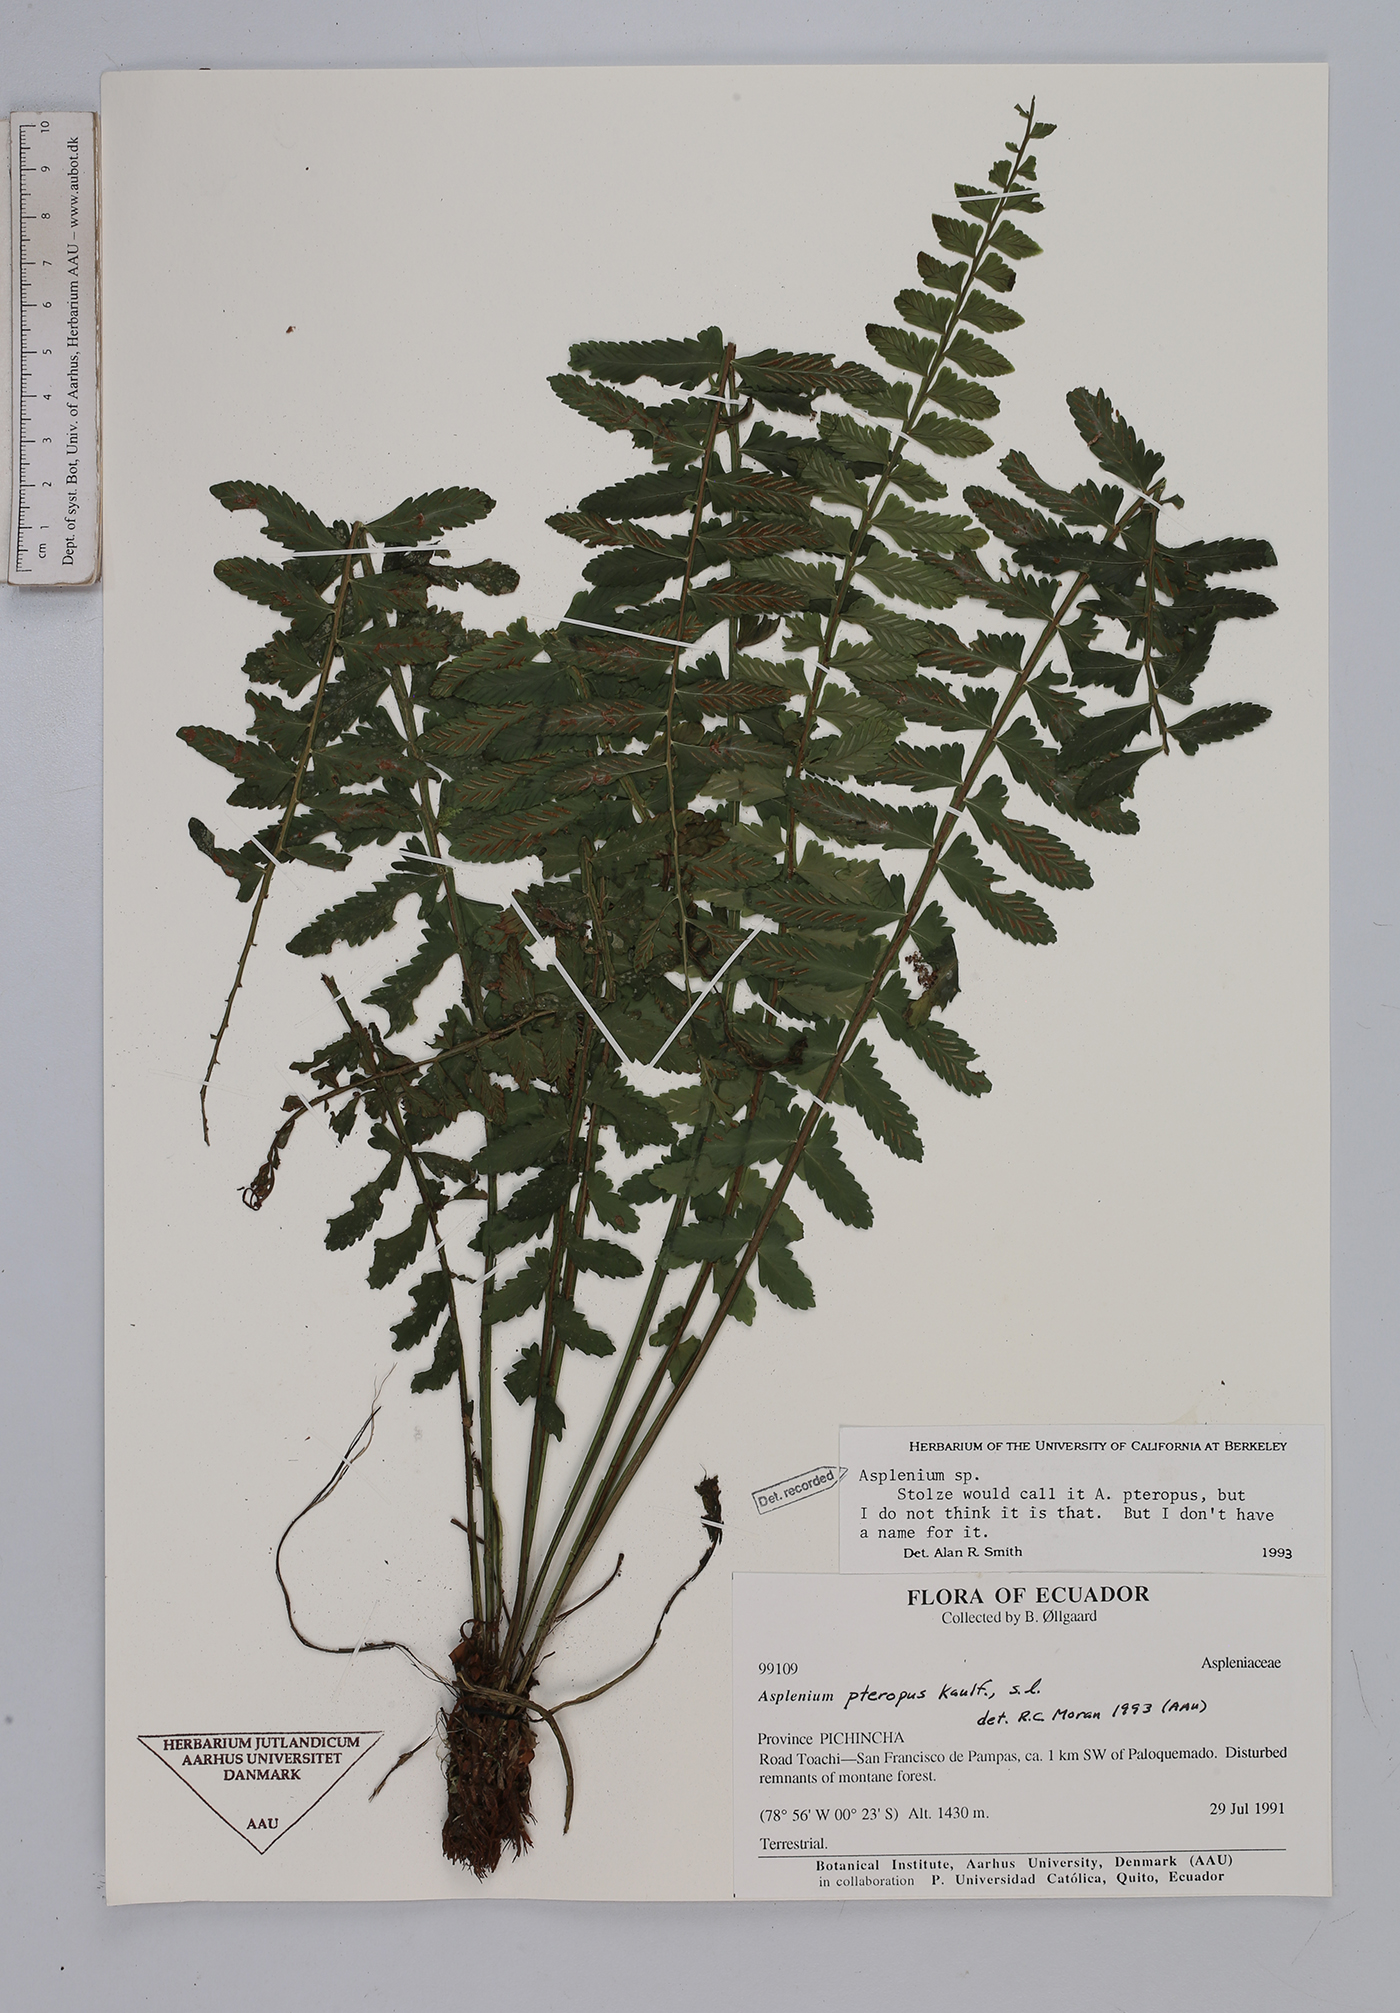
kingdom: Plantae
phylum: Tracheophyta
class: Polypodiopsida
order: Polypodiales
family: Aspleniaceae
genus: Asplenium
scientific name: Asplenium
